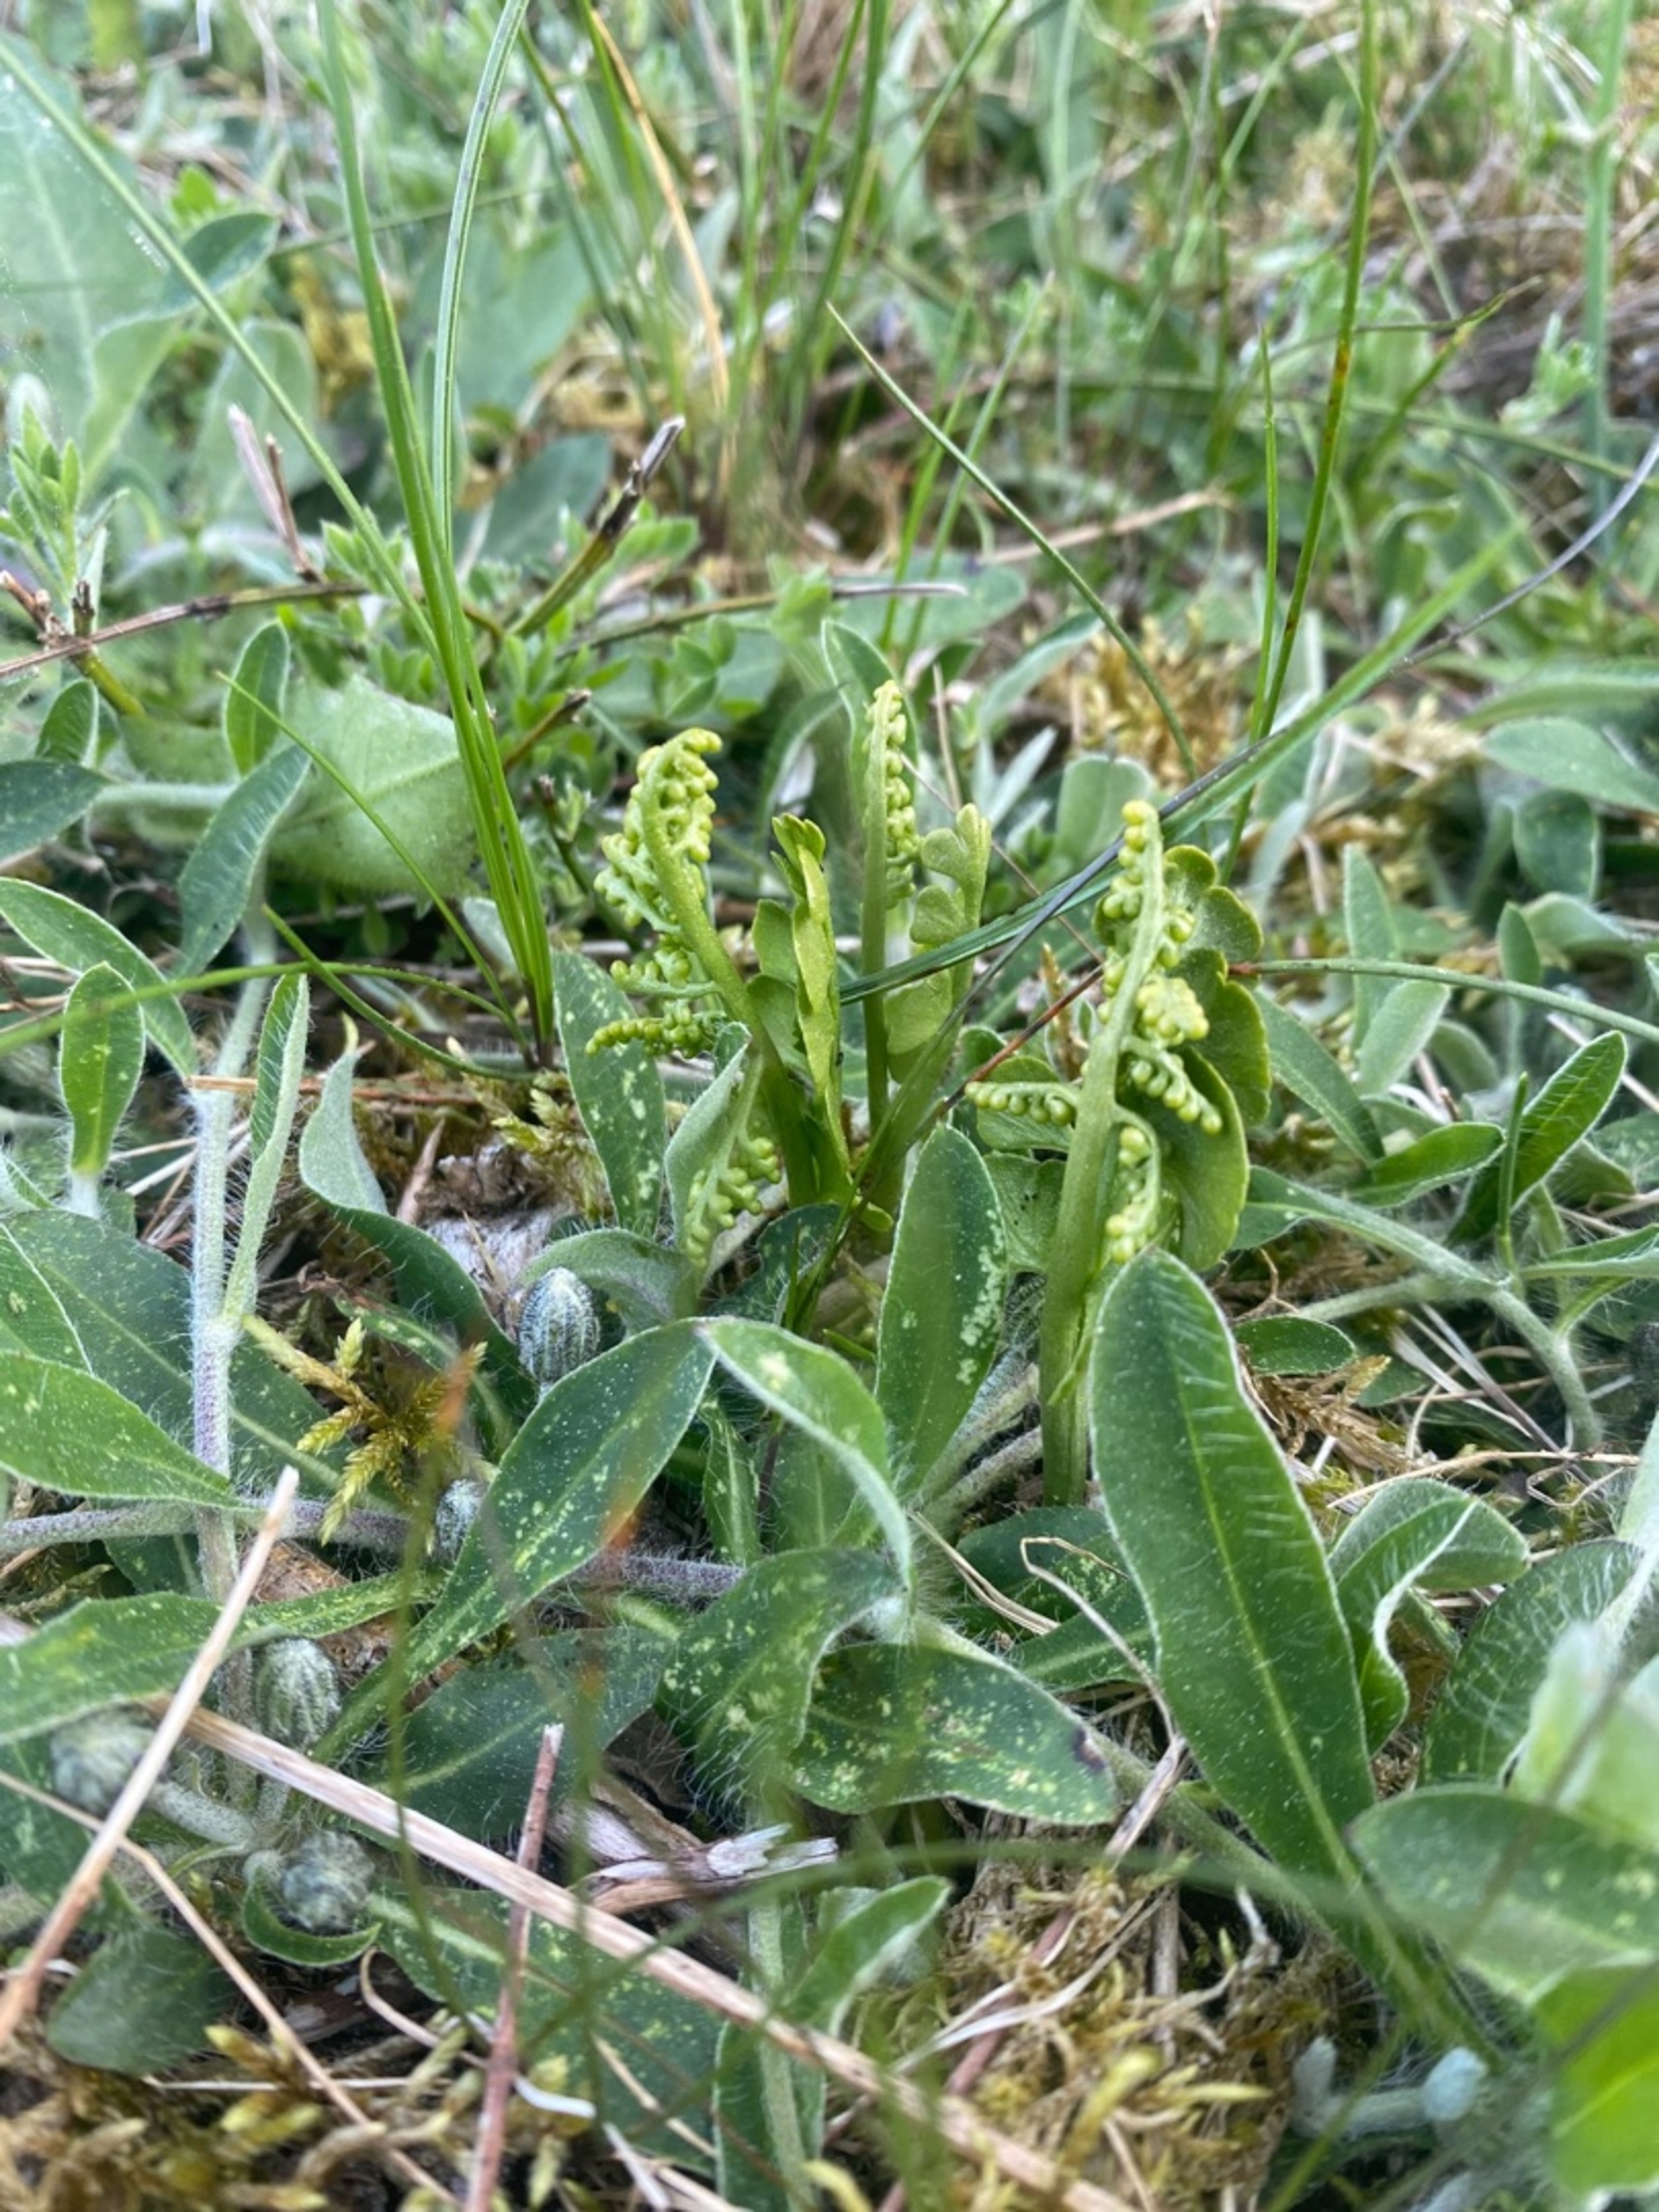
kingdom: Plantae
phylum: Tracheophyta
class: Polypodiopsida
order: Ophioglossales
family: Ophioglossaceae
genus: Botrychium
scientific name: Botrychium lunaria
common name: Almindelig månerude
